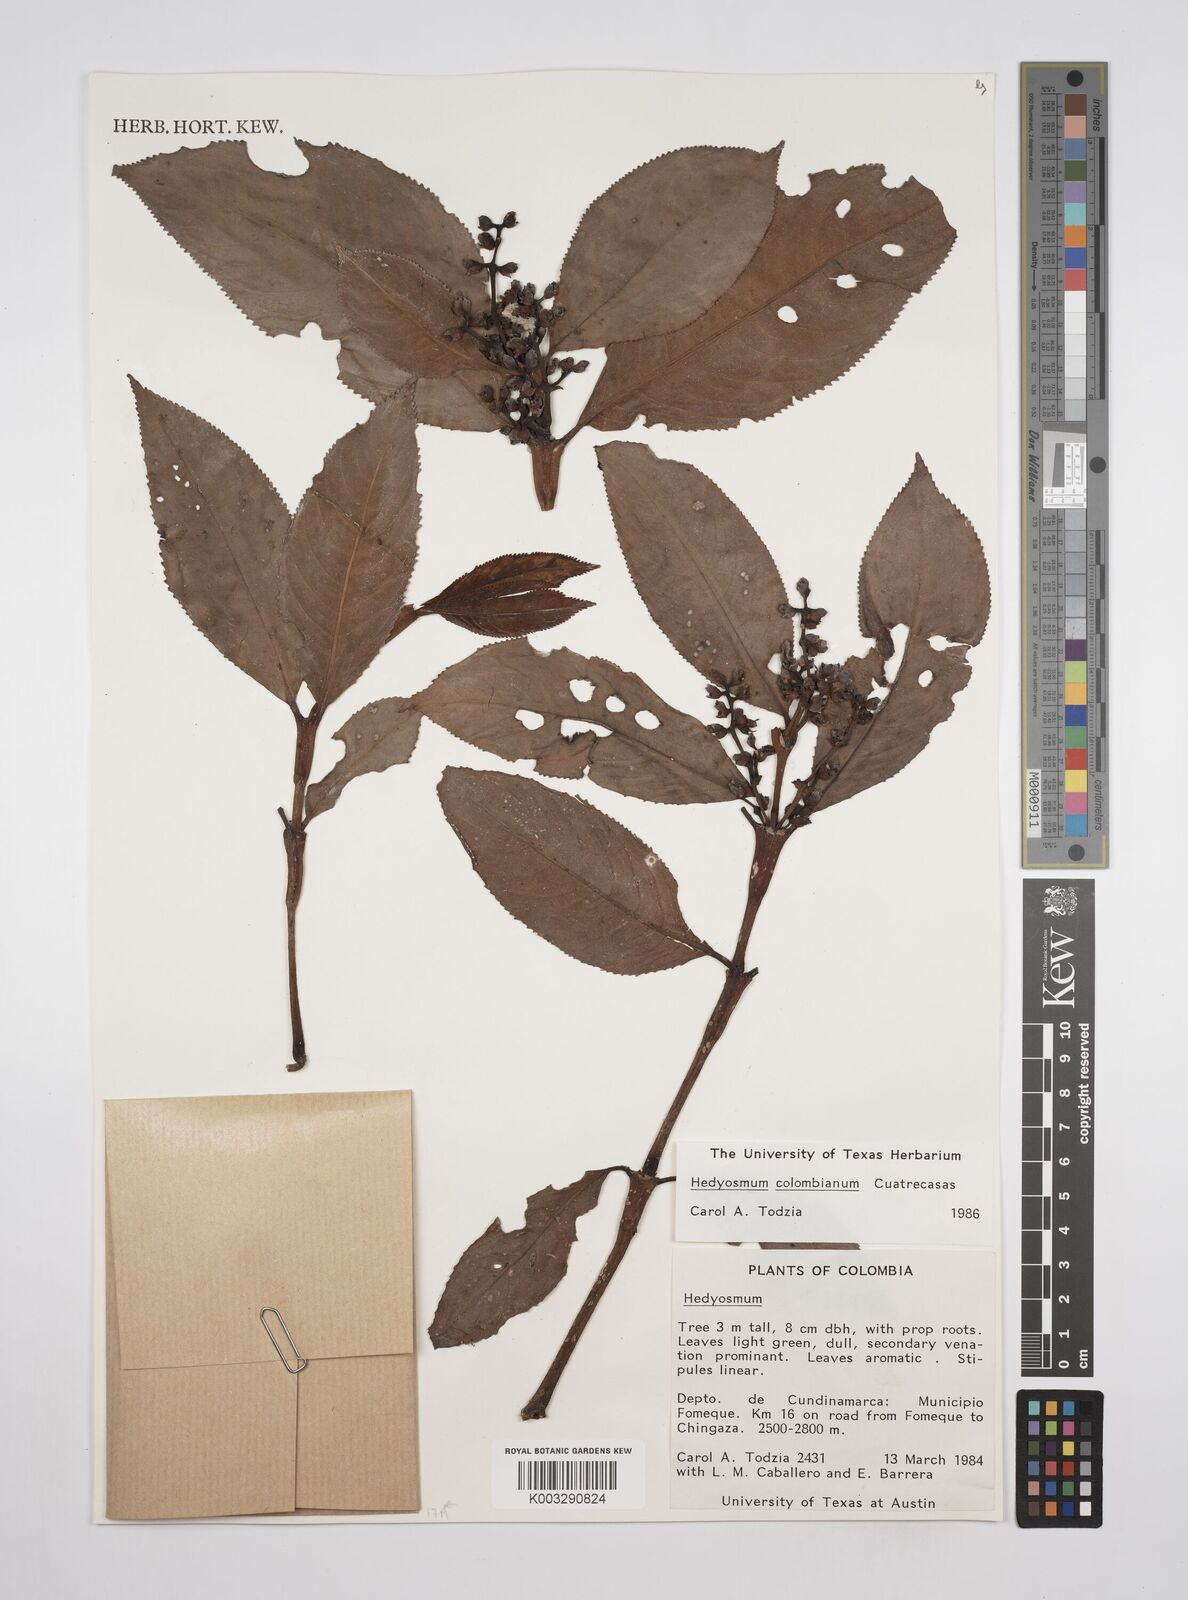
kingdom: Plantae
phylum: Tracheophyta
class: Magnoliopsida
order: Chloranthales
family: Chloranthaceae
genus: Hedyosmum
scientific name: Hedyosmum colombianum
